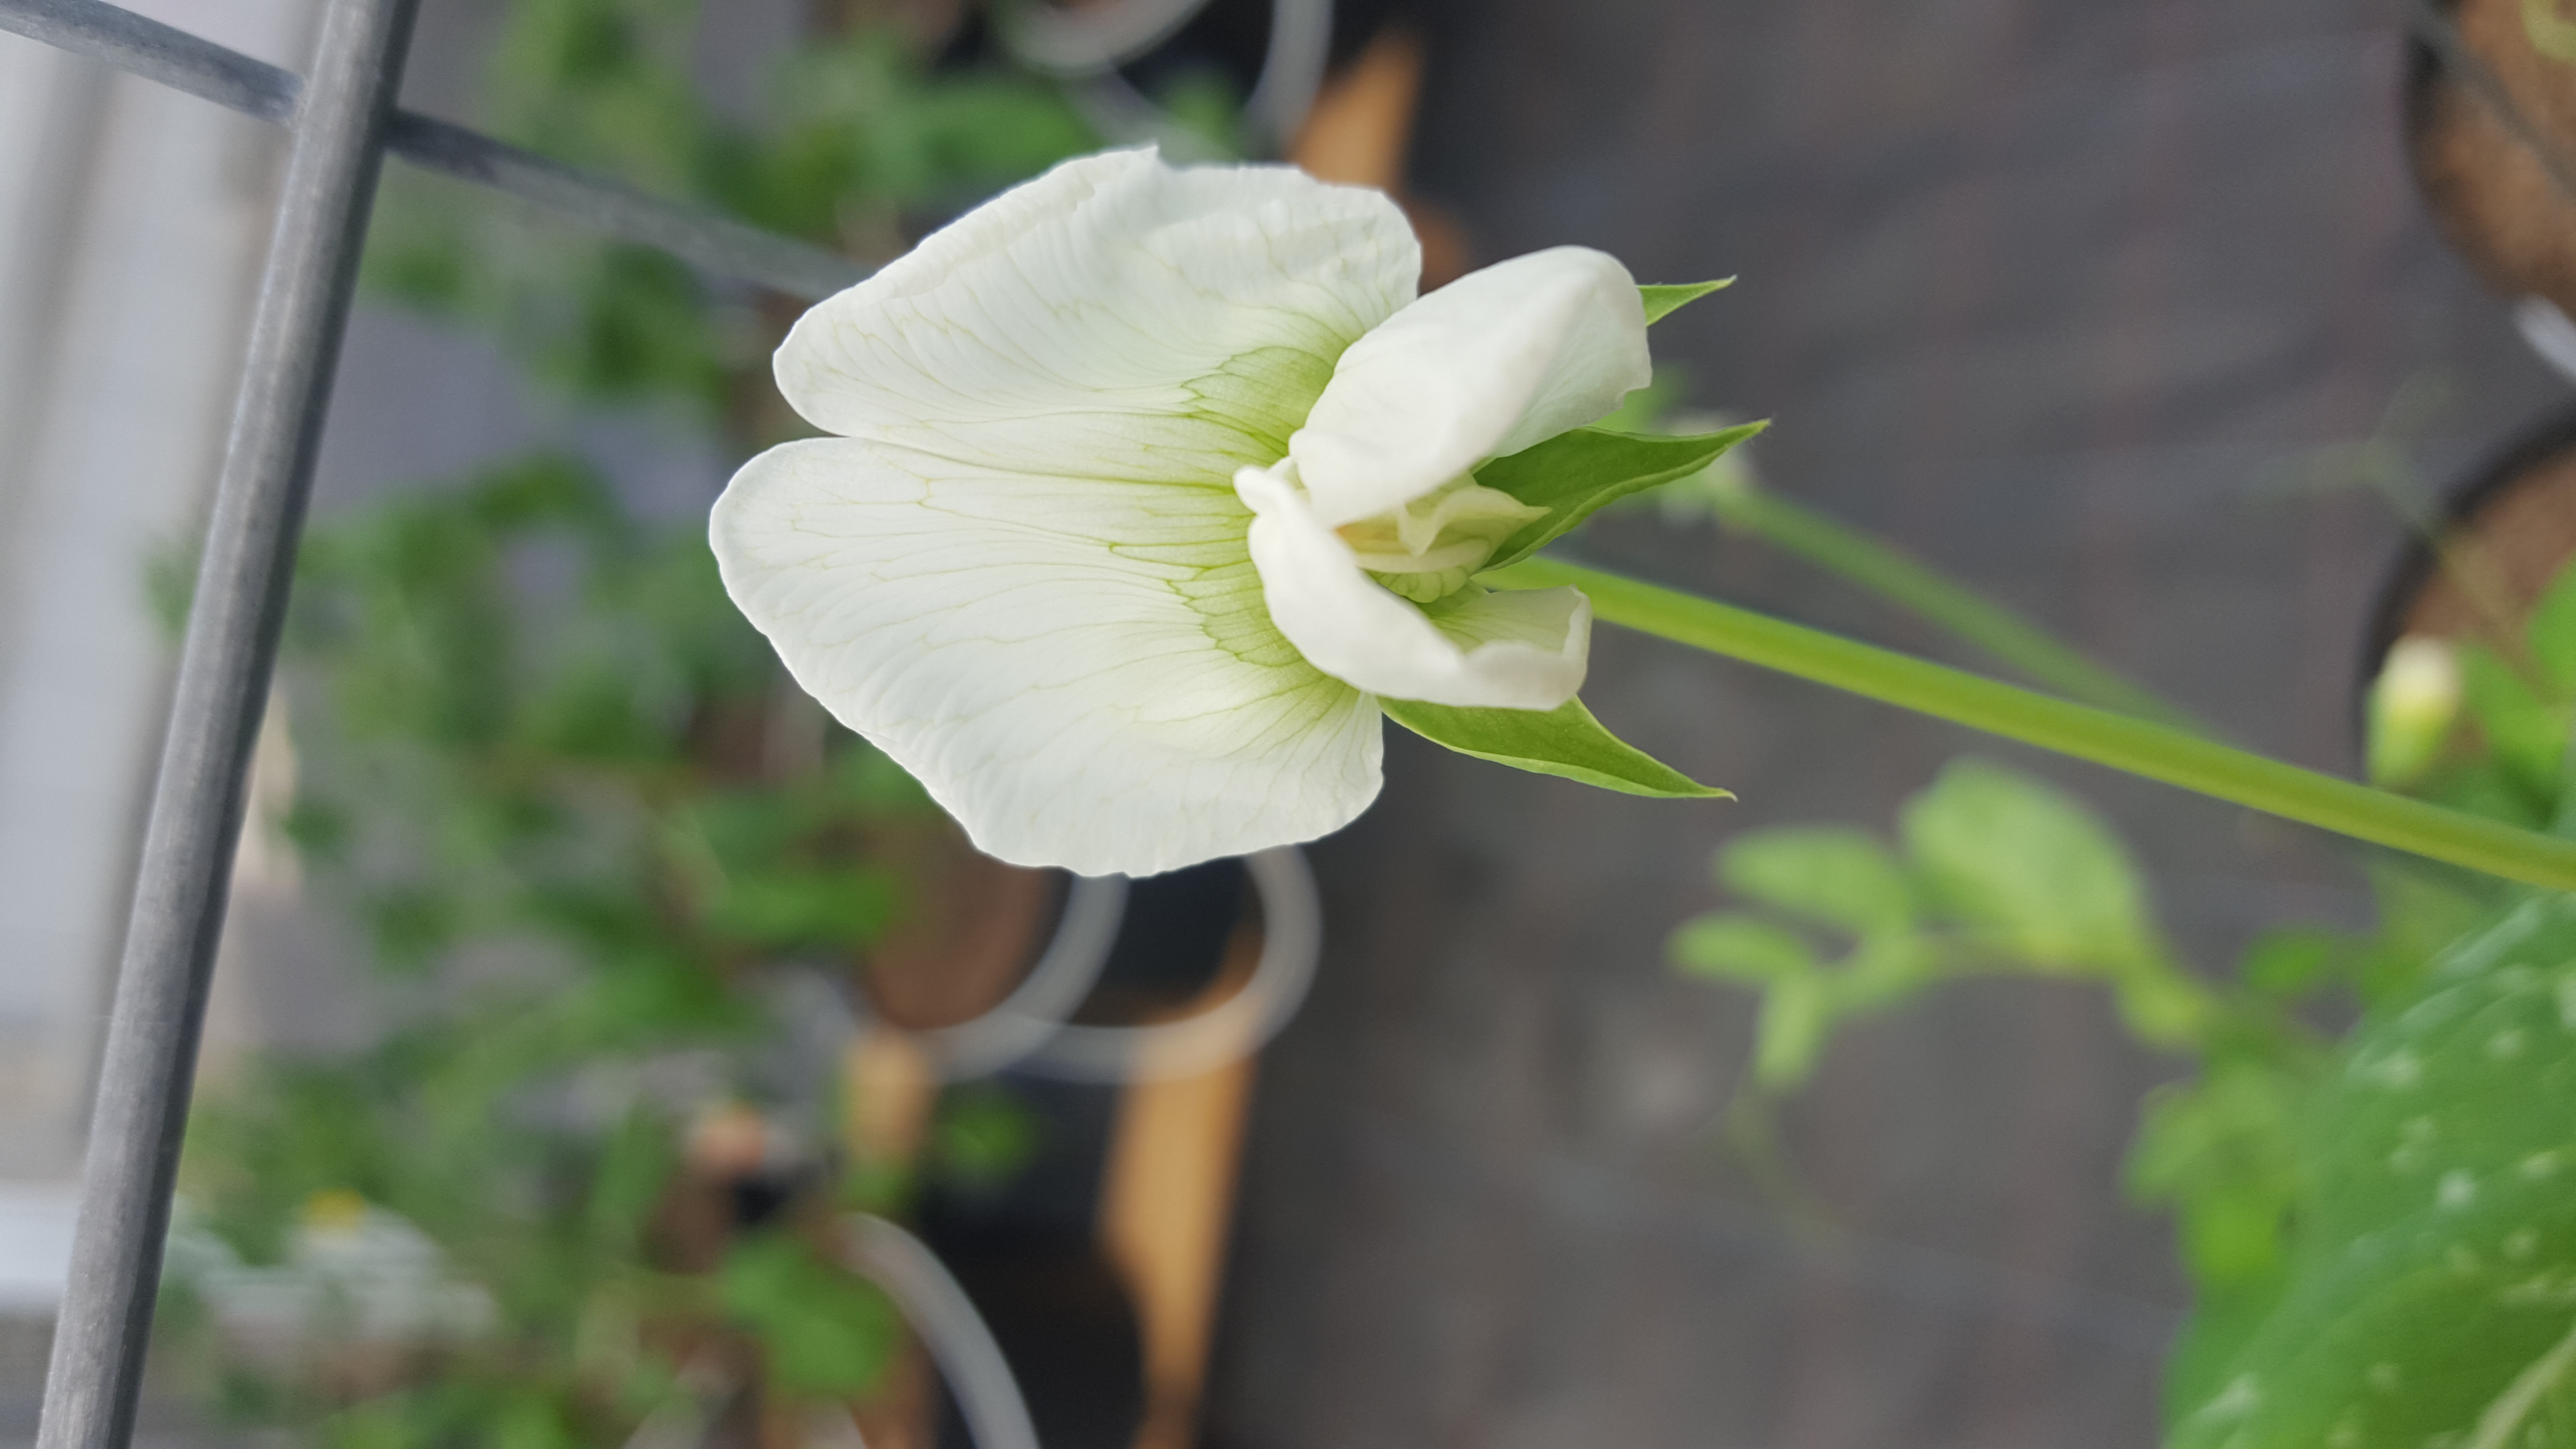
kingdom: Plantae
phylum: Tracheophyta
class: Magnoliopsida
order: Fabales
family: Fabaceae
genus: Lathyrus
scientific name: Lathyrus oleraceus
